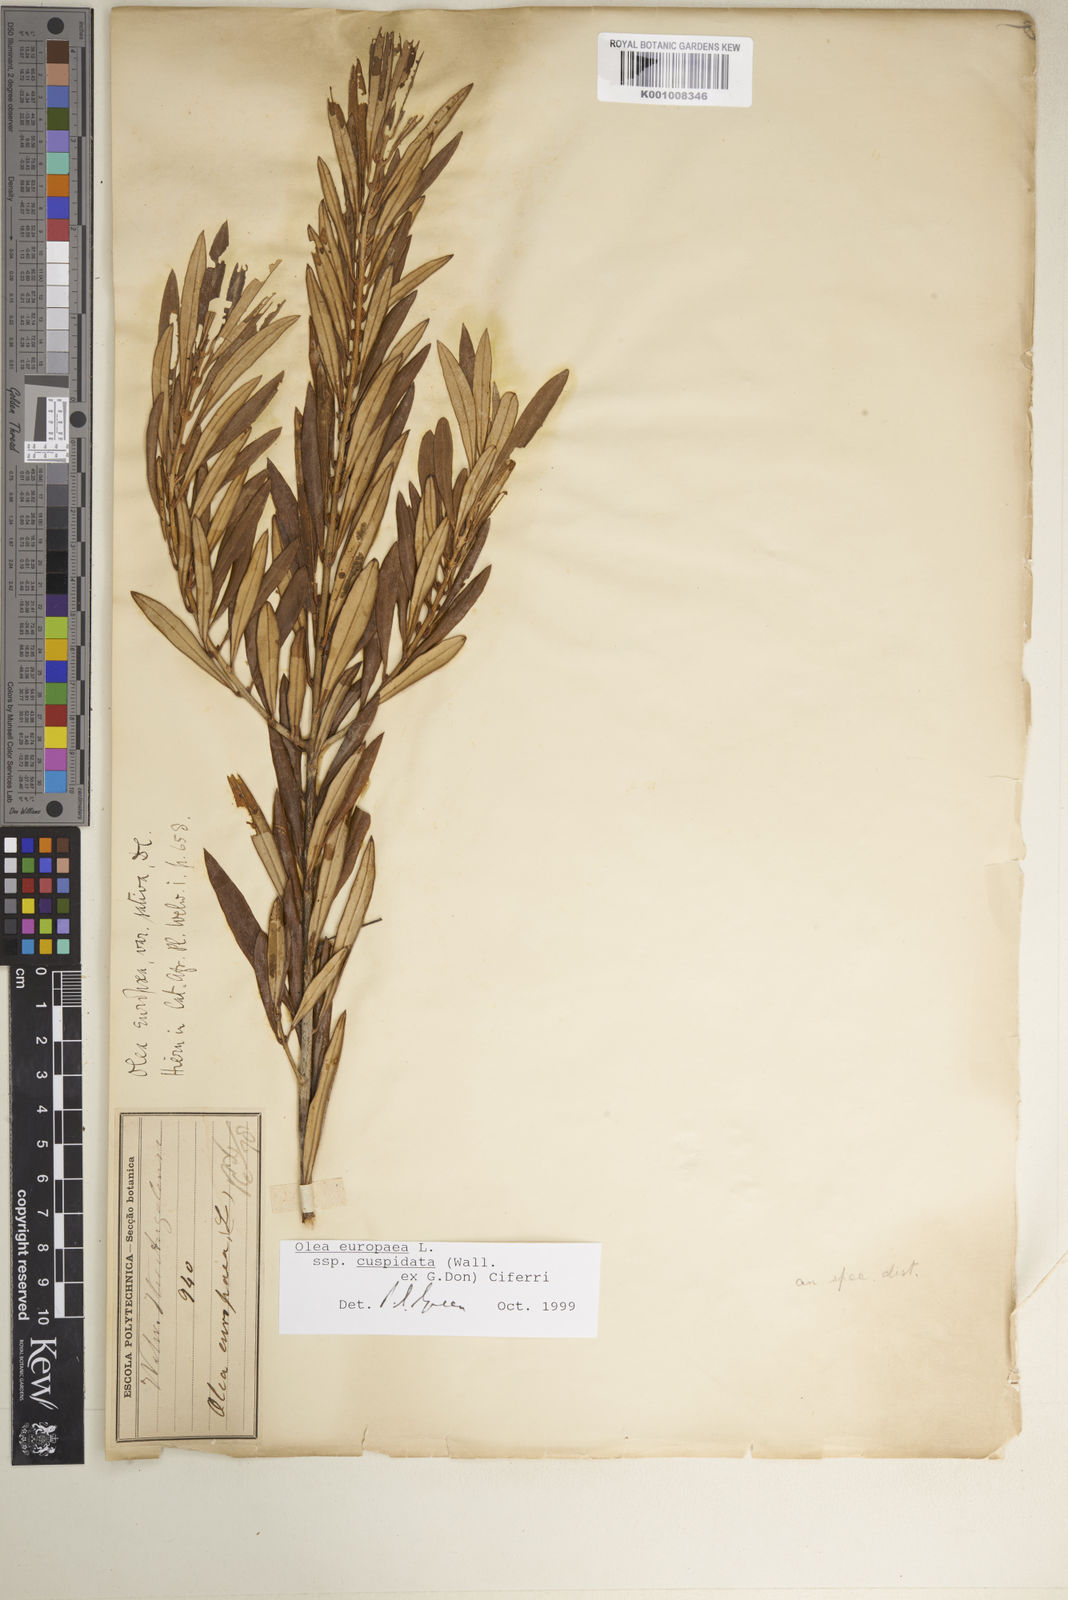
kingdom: Plantae
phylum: Tracheophyta
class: Magnoliopsida
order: Lamiales
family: Oleaceae
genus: Olea
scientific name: Olea europaea
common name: Olive
